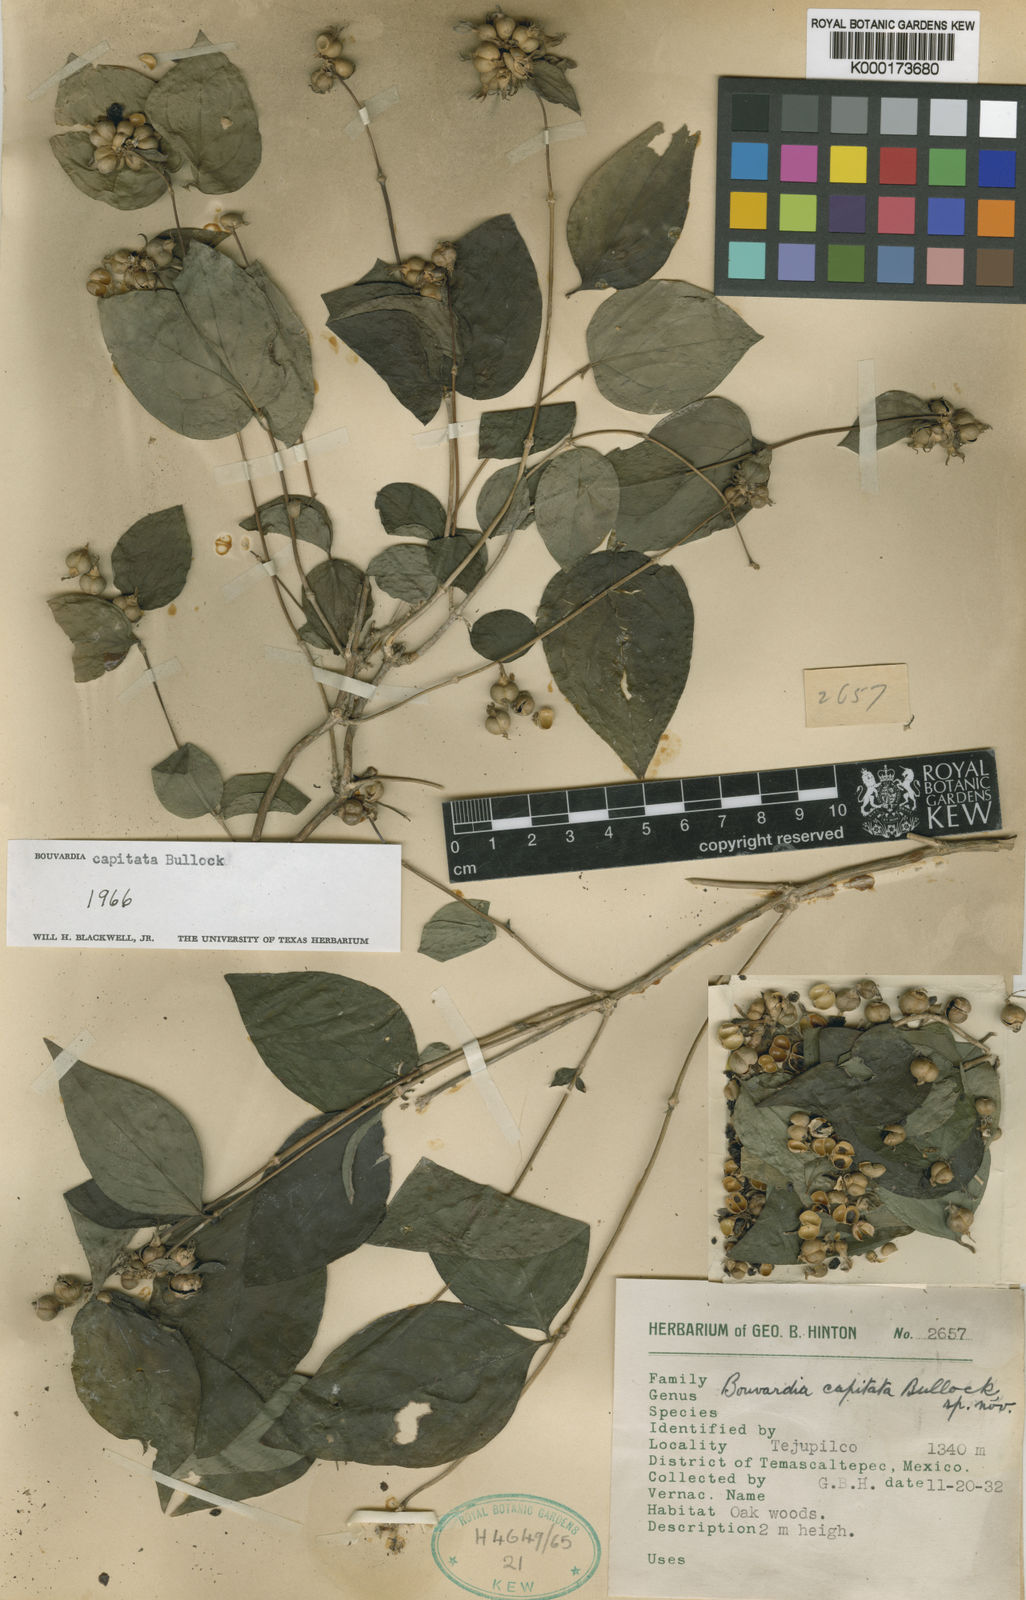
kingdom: Plantae
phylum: Tracheophyta
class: Magnoliopsida
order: Gentianales
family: Rubiaceae
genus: Bouvardia
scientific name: Bouvardia capitata
